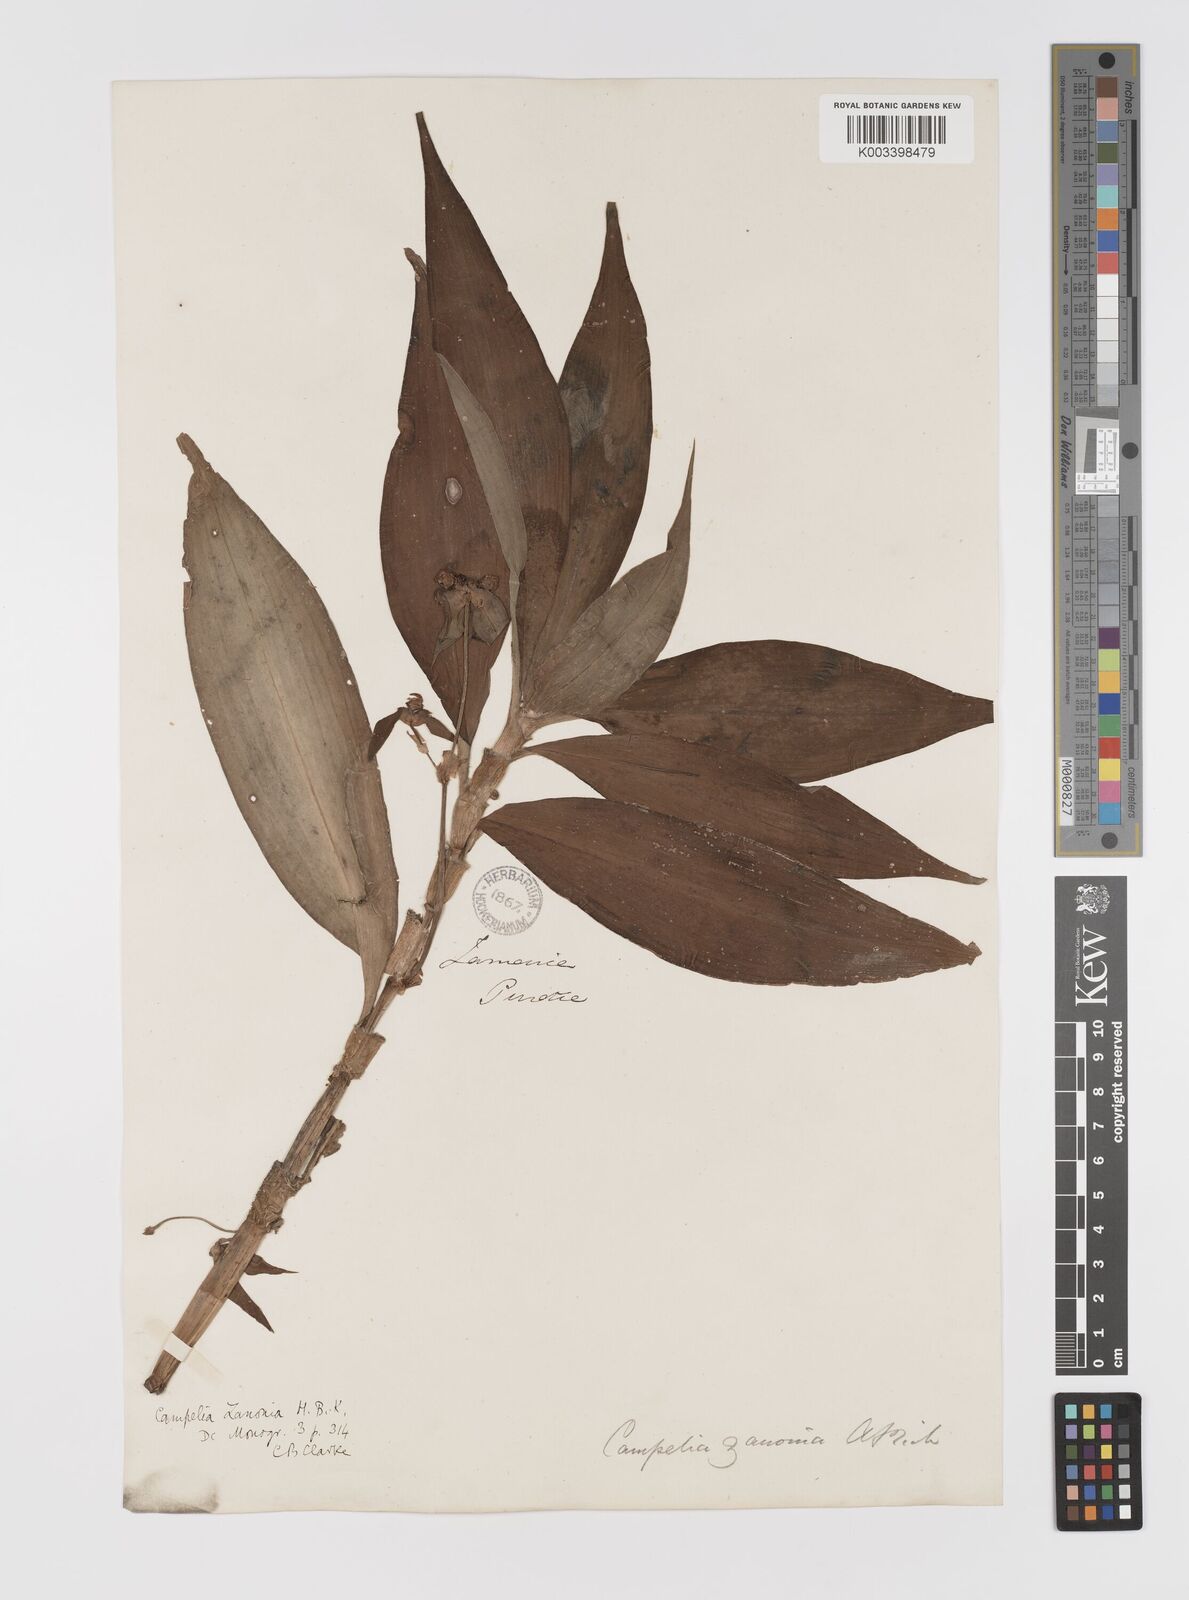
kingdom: Plantae
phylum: Tracheophyta
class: Liliopsida
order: Commelinales
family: Commelinaceae
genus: Tradescantia
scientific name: Tradescantia zanonia
